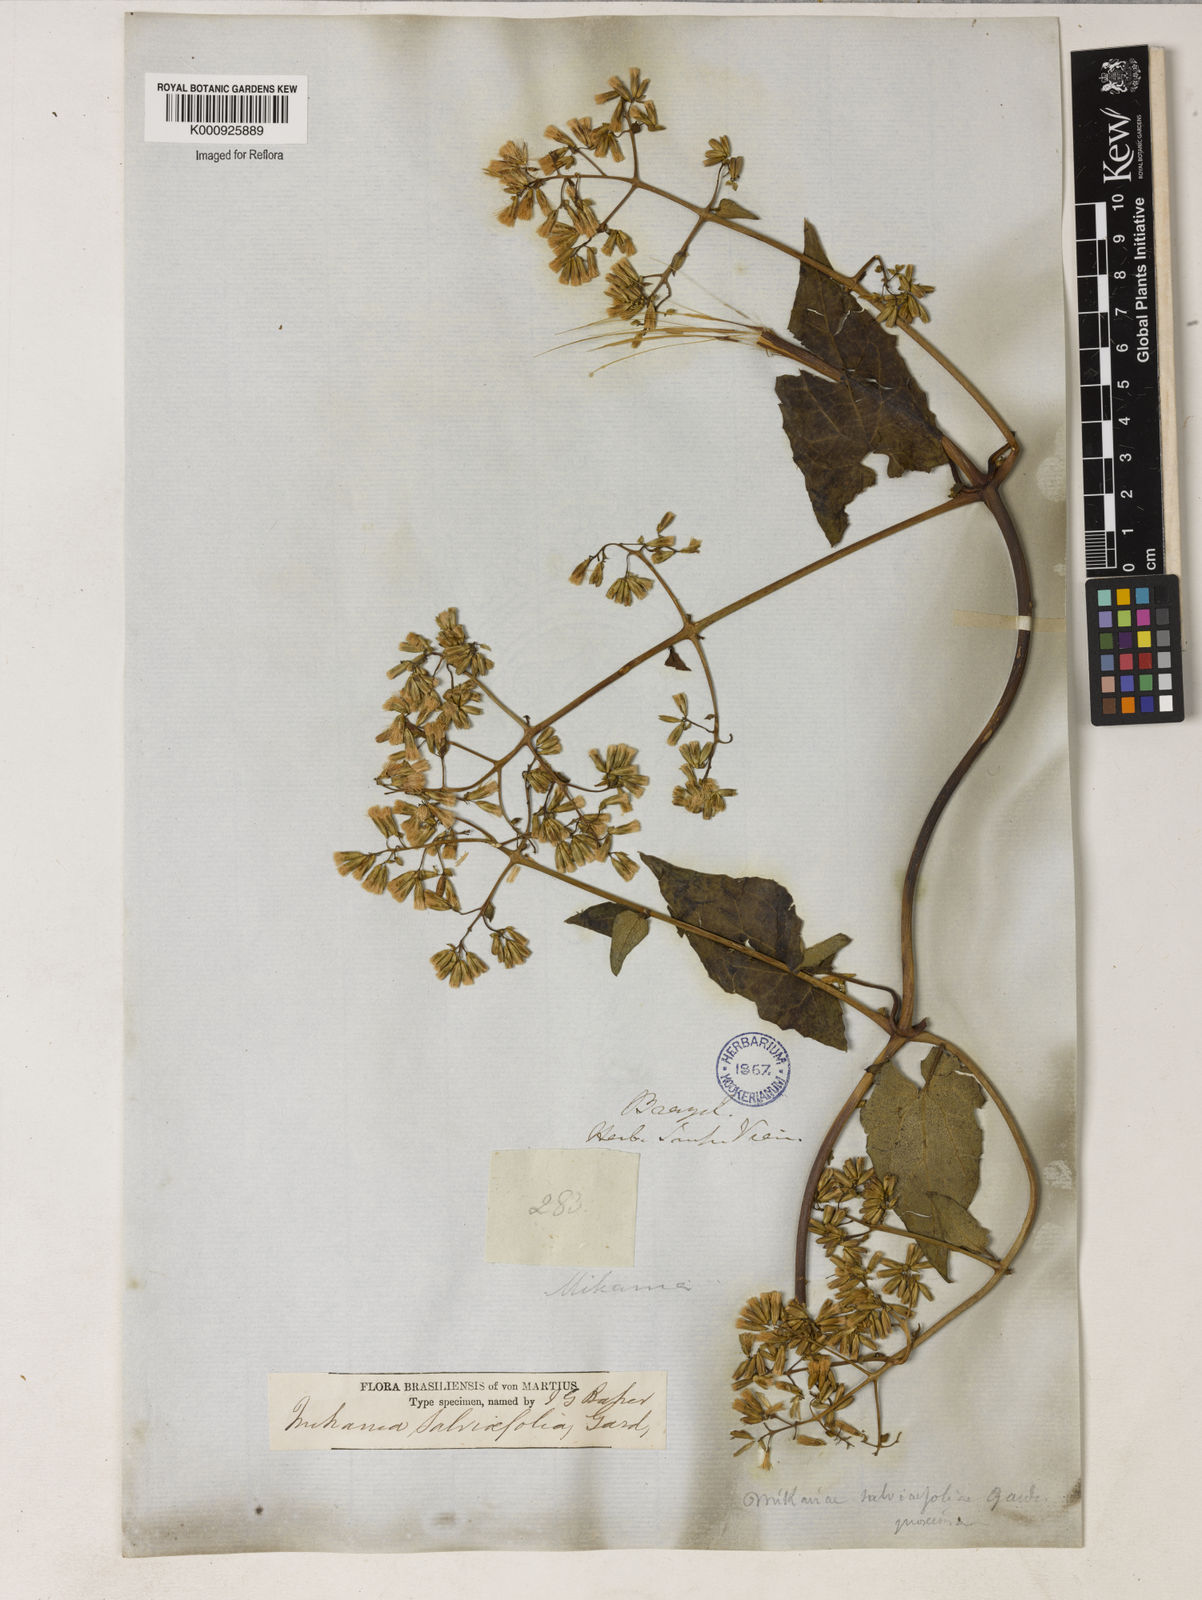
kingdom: Plantae
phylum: Tracheophyta
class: Magnoliopsida
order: Asterales
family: Asteraceae
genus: Mikania
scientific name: Mikania
